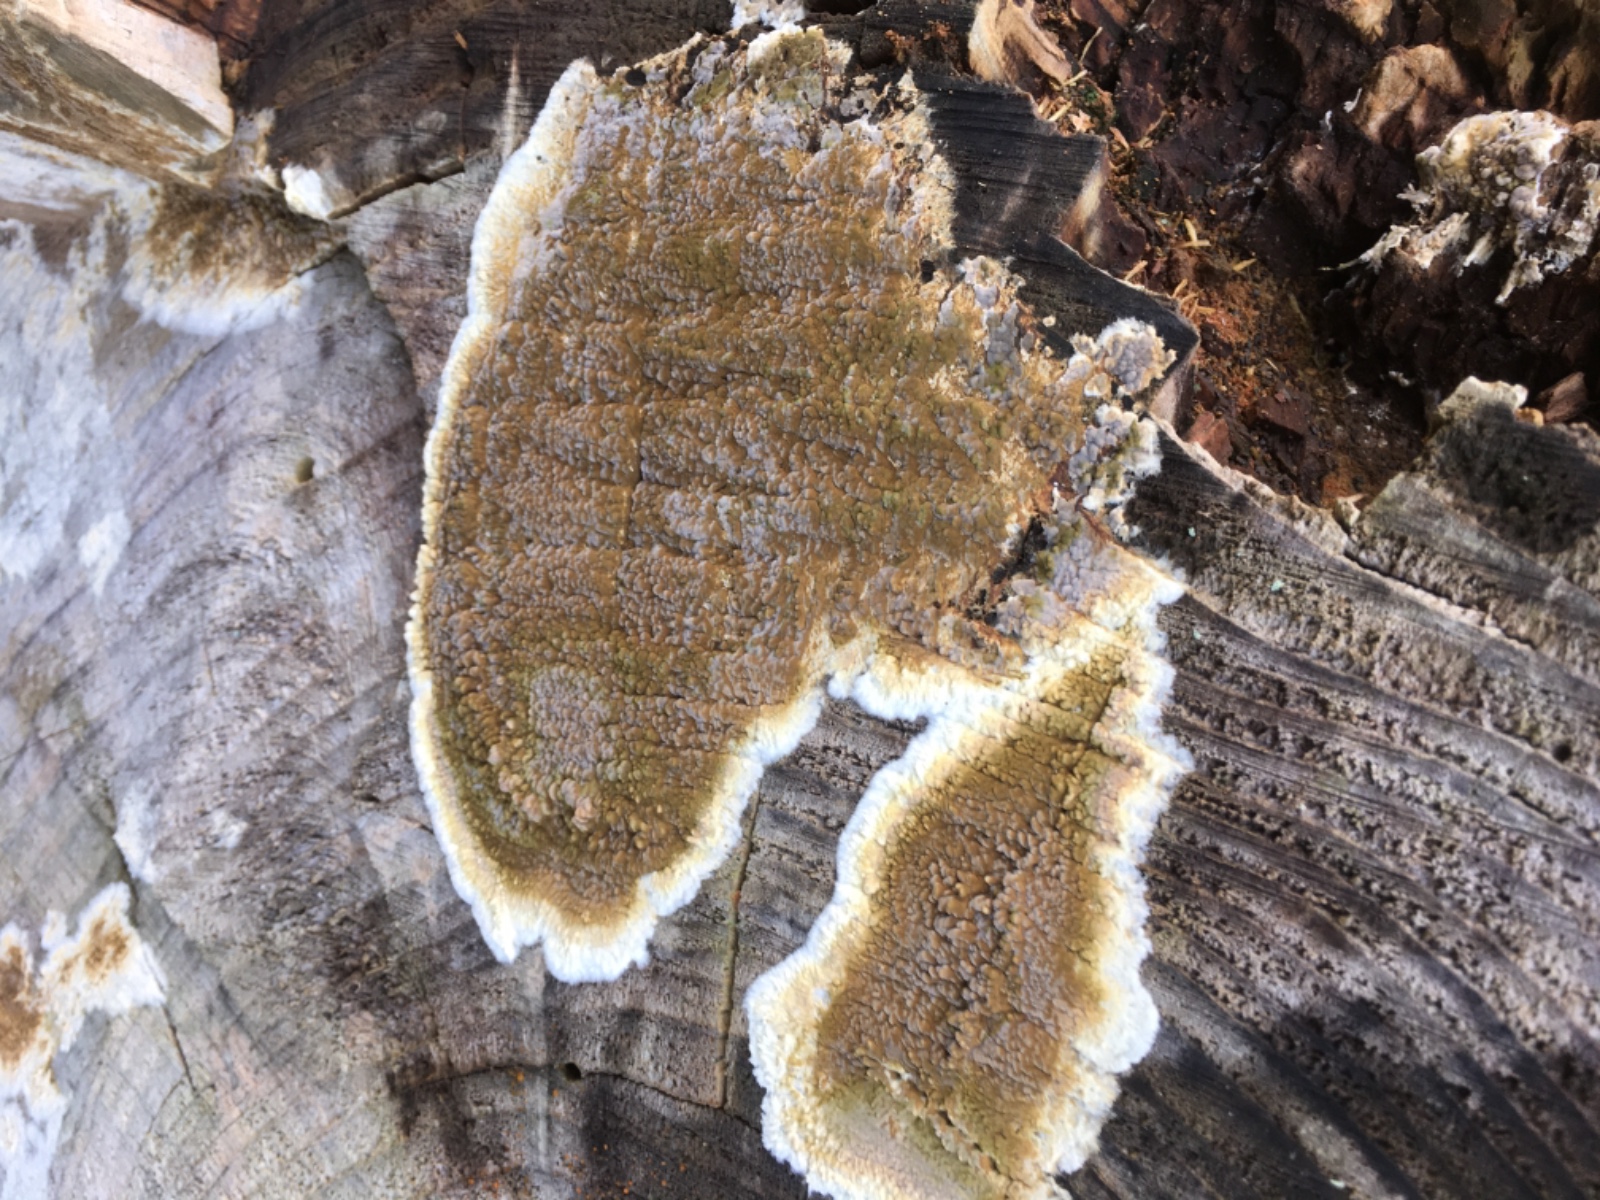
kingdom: Fungi
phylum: Basidiomycota
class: Agaricomycetes
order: Boletales
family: Coniophoraceae
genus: Coniophora
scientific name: Coniophora puteana
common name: gul tømmersvamp
